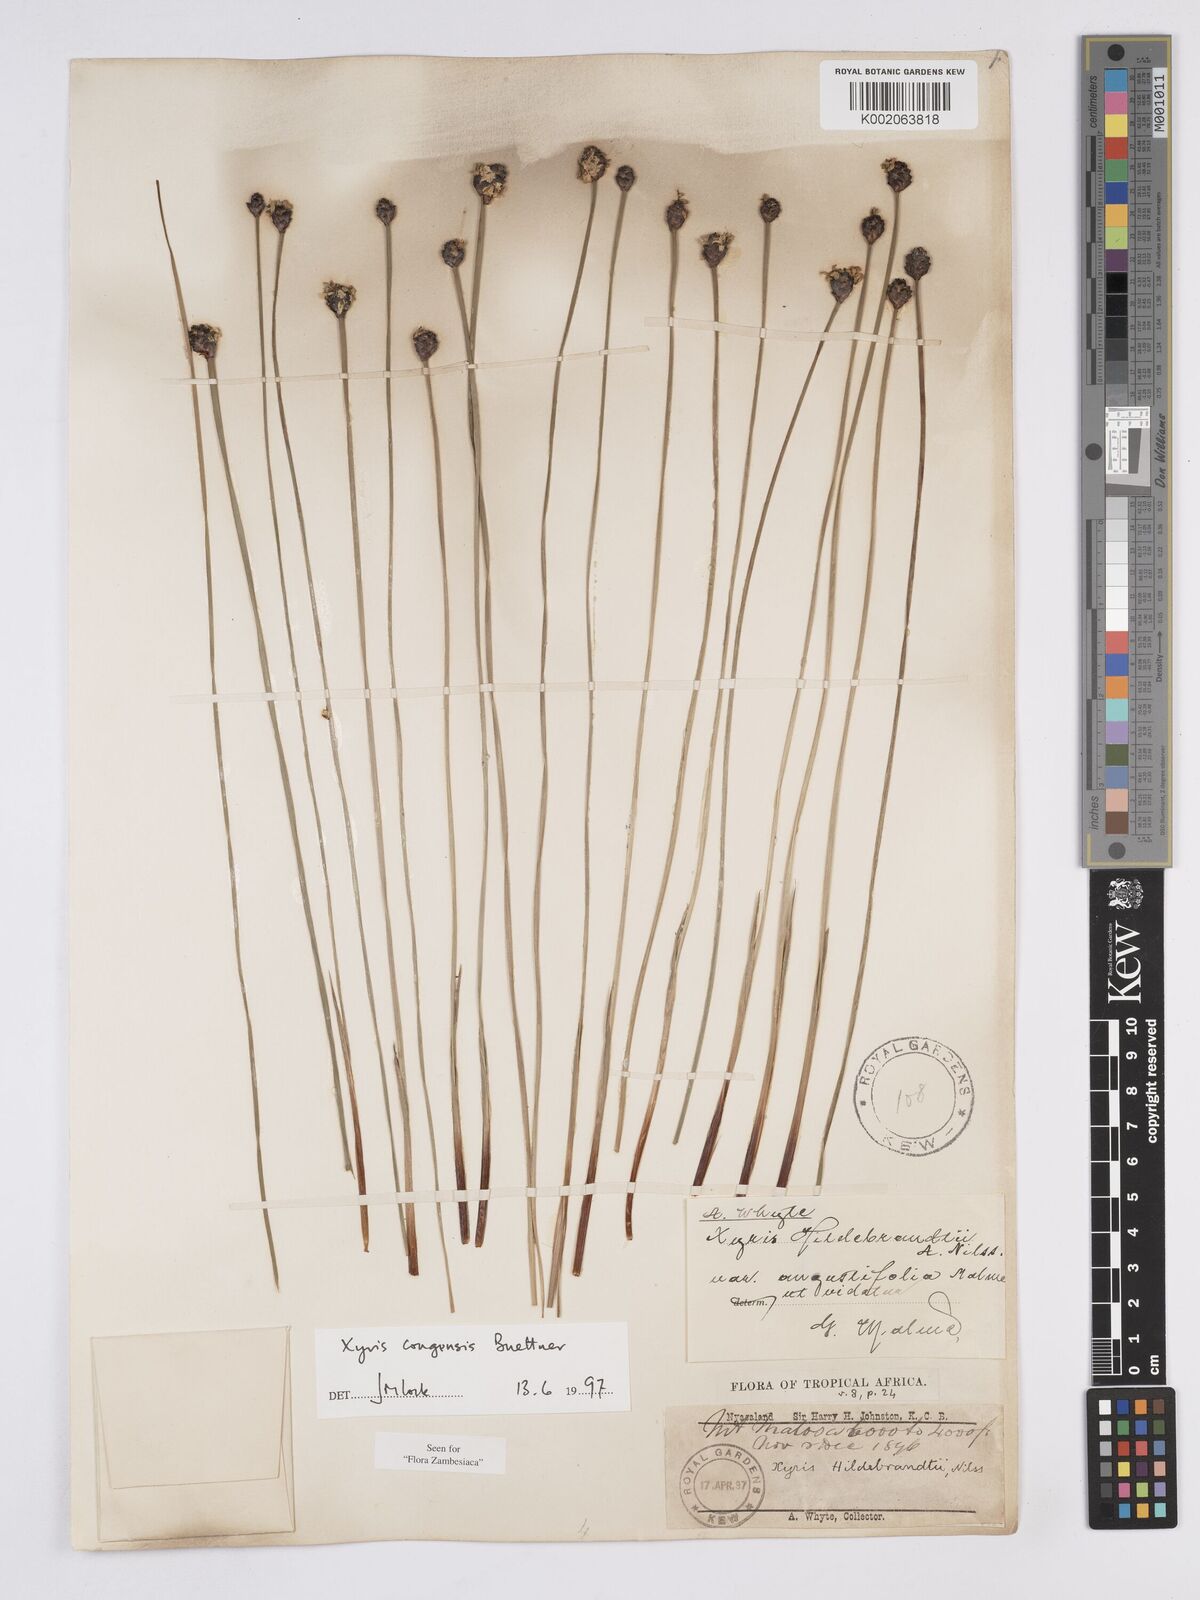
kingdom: Plantae
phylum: Tracheophyta
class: Liliopsida
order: Poales
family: Xyridaceae
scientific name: Xyridaceae
